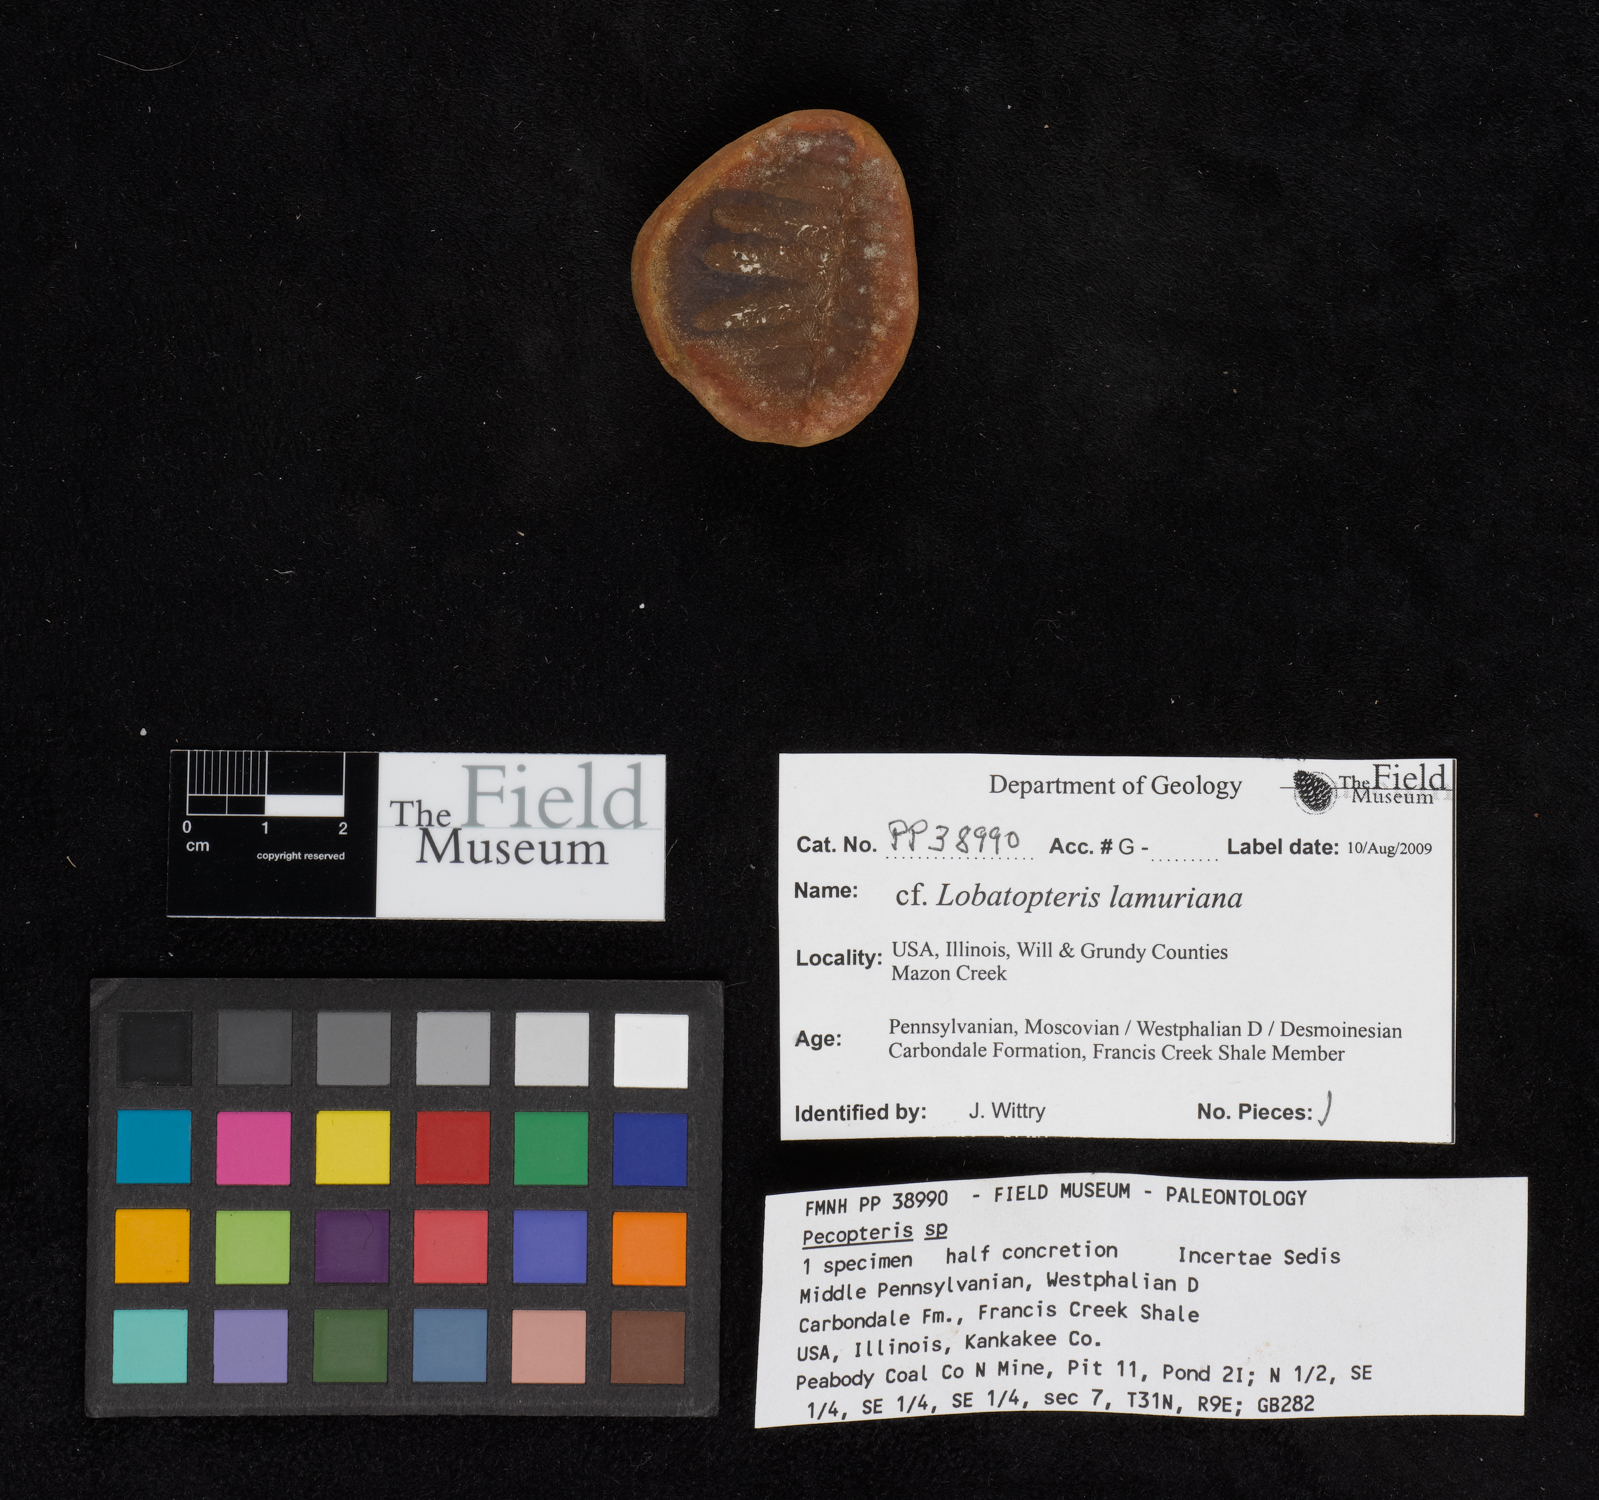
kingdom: Plantae
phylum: Tracheophyta
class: Polypodiopsida
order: Marattiales
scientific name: Marattiales
